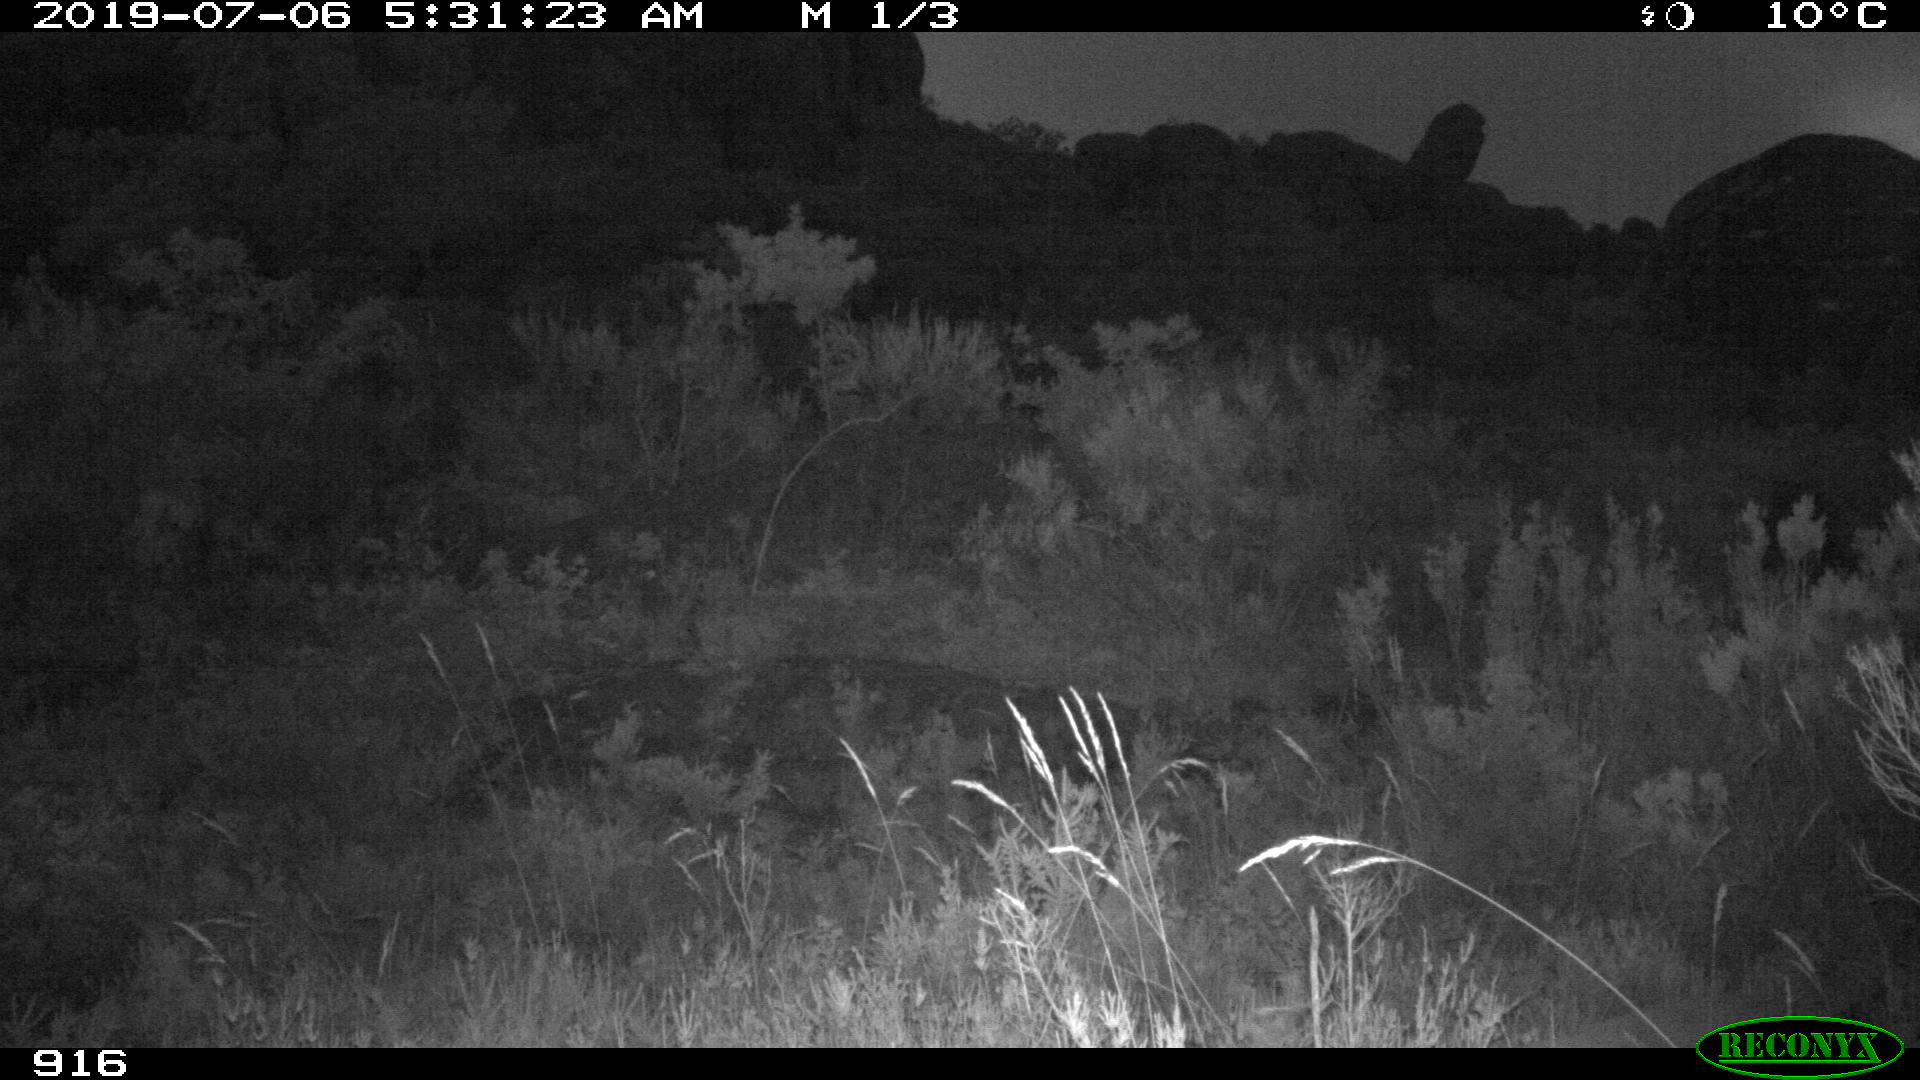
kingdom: Animalia
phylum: Chordata
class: Mammalia
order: Artiodactyla
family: Cervidae
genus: Capreolus
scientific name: Capreolus capreolus
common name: Western roe deer
